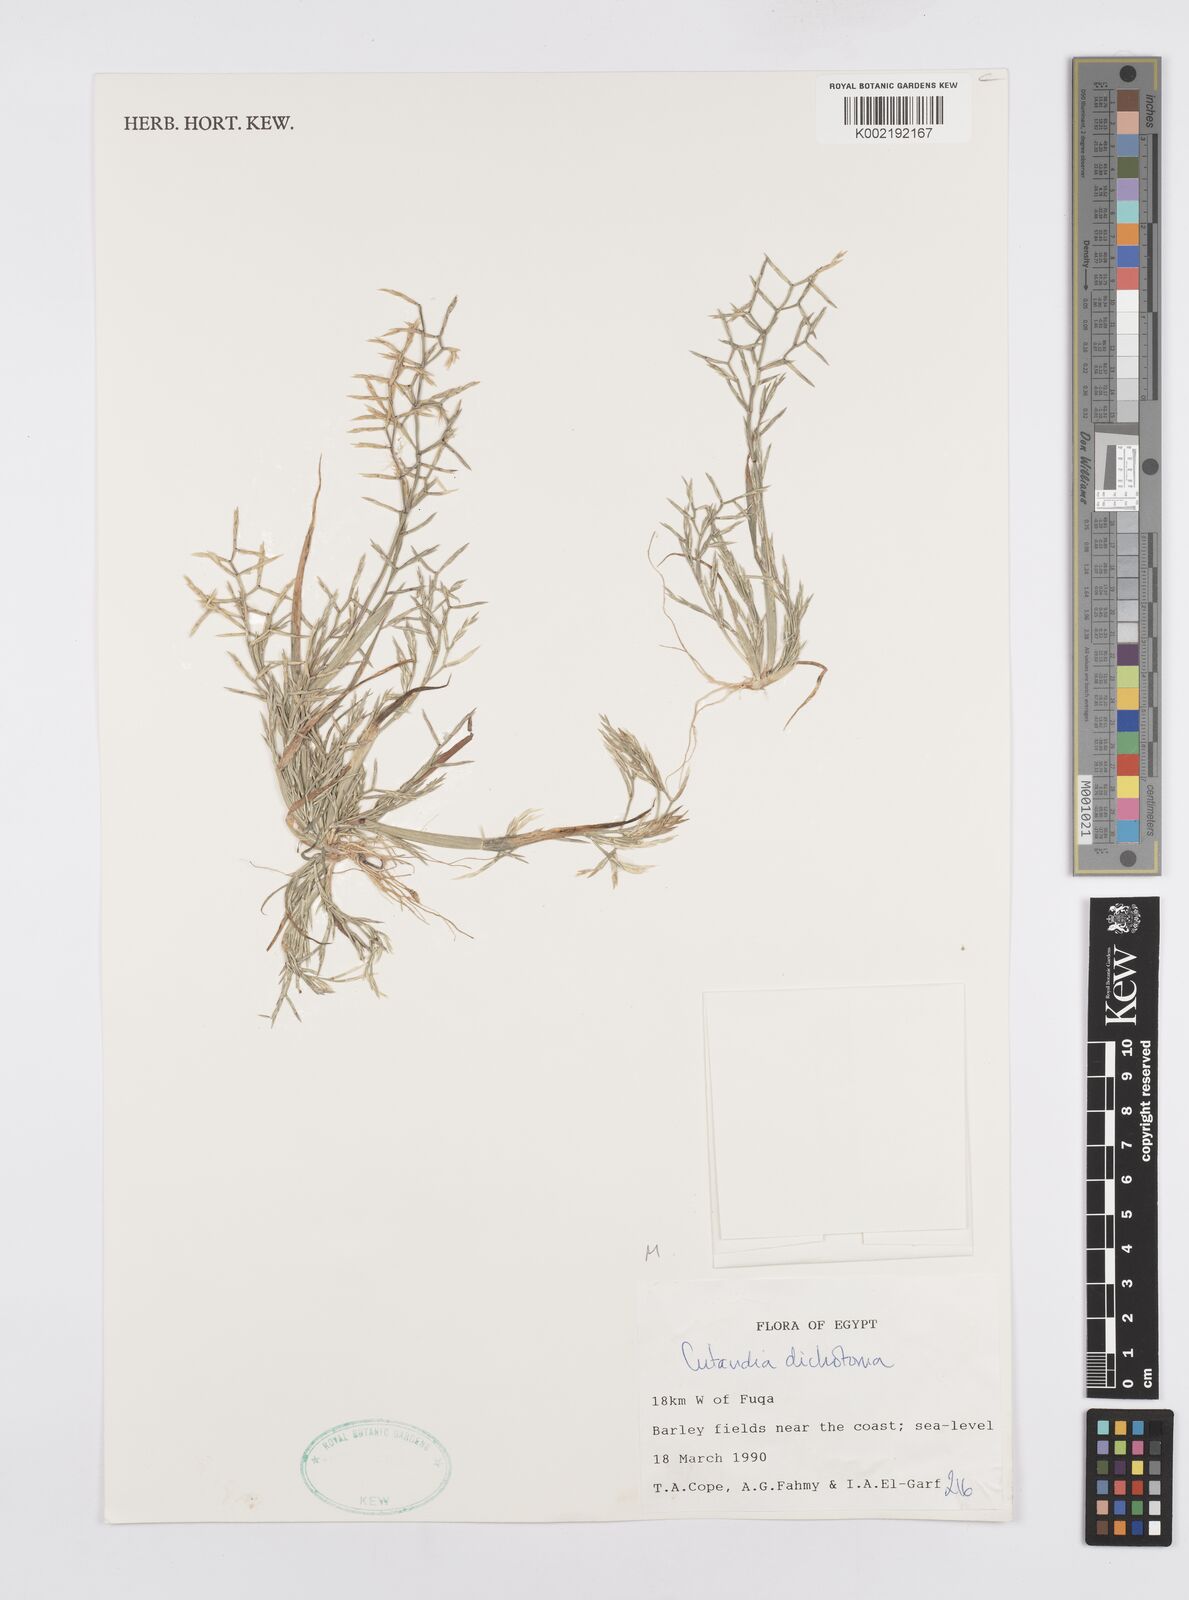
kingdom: Plantae
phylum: Tracheophyta
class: Liliopsida
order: Poales
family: Poaceae
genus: Cutandia
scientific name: Cutandia dichotoma
